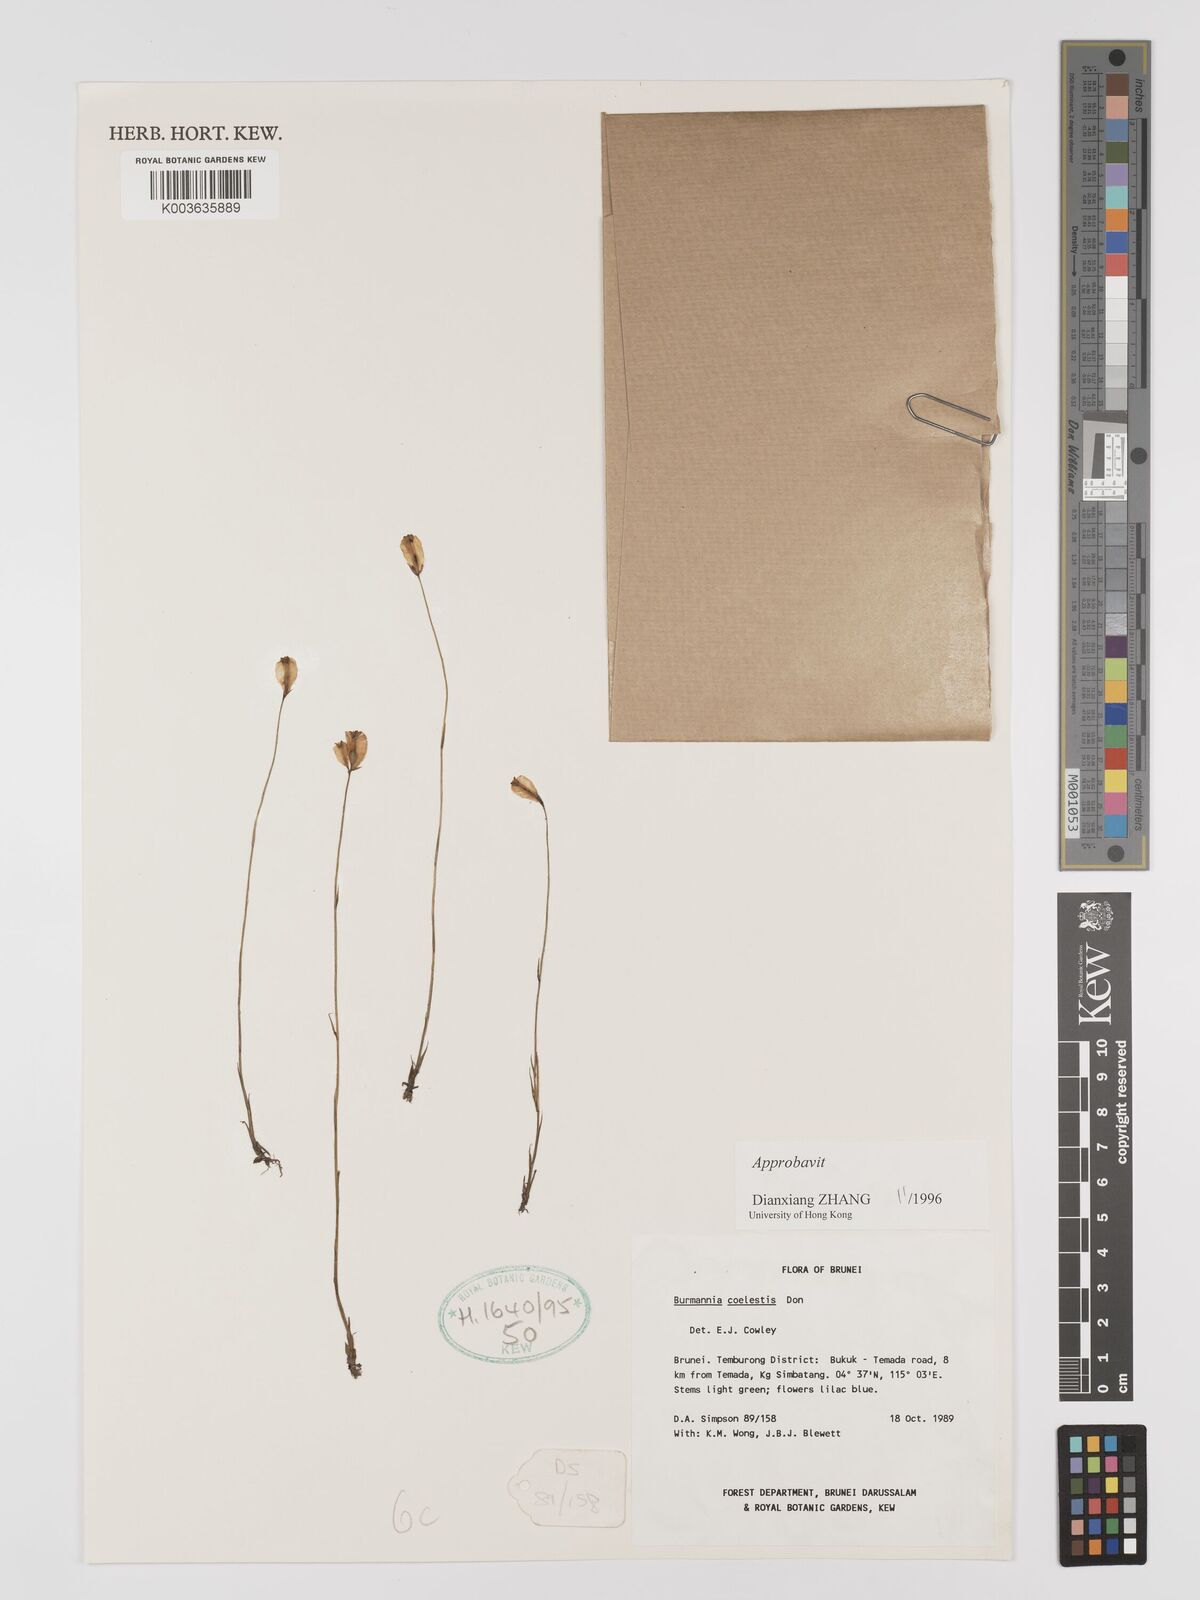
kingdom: Plantae
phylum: Tracheophyta
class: Liliopsida
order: Dioscoreales
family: Burmanniaceae
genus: Burmannia
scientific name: Burmannia coelestis
